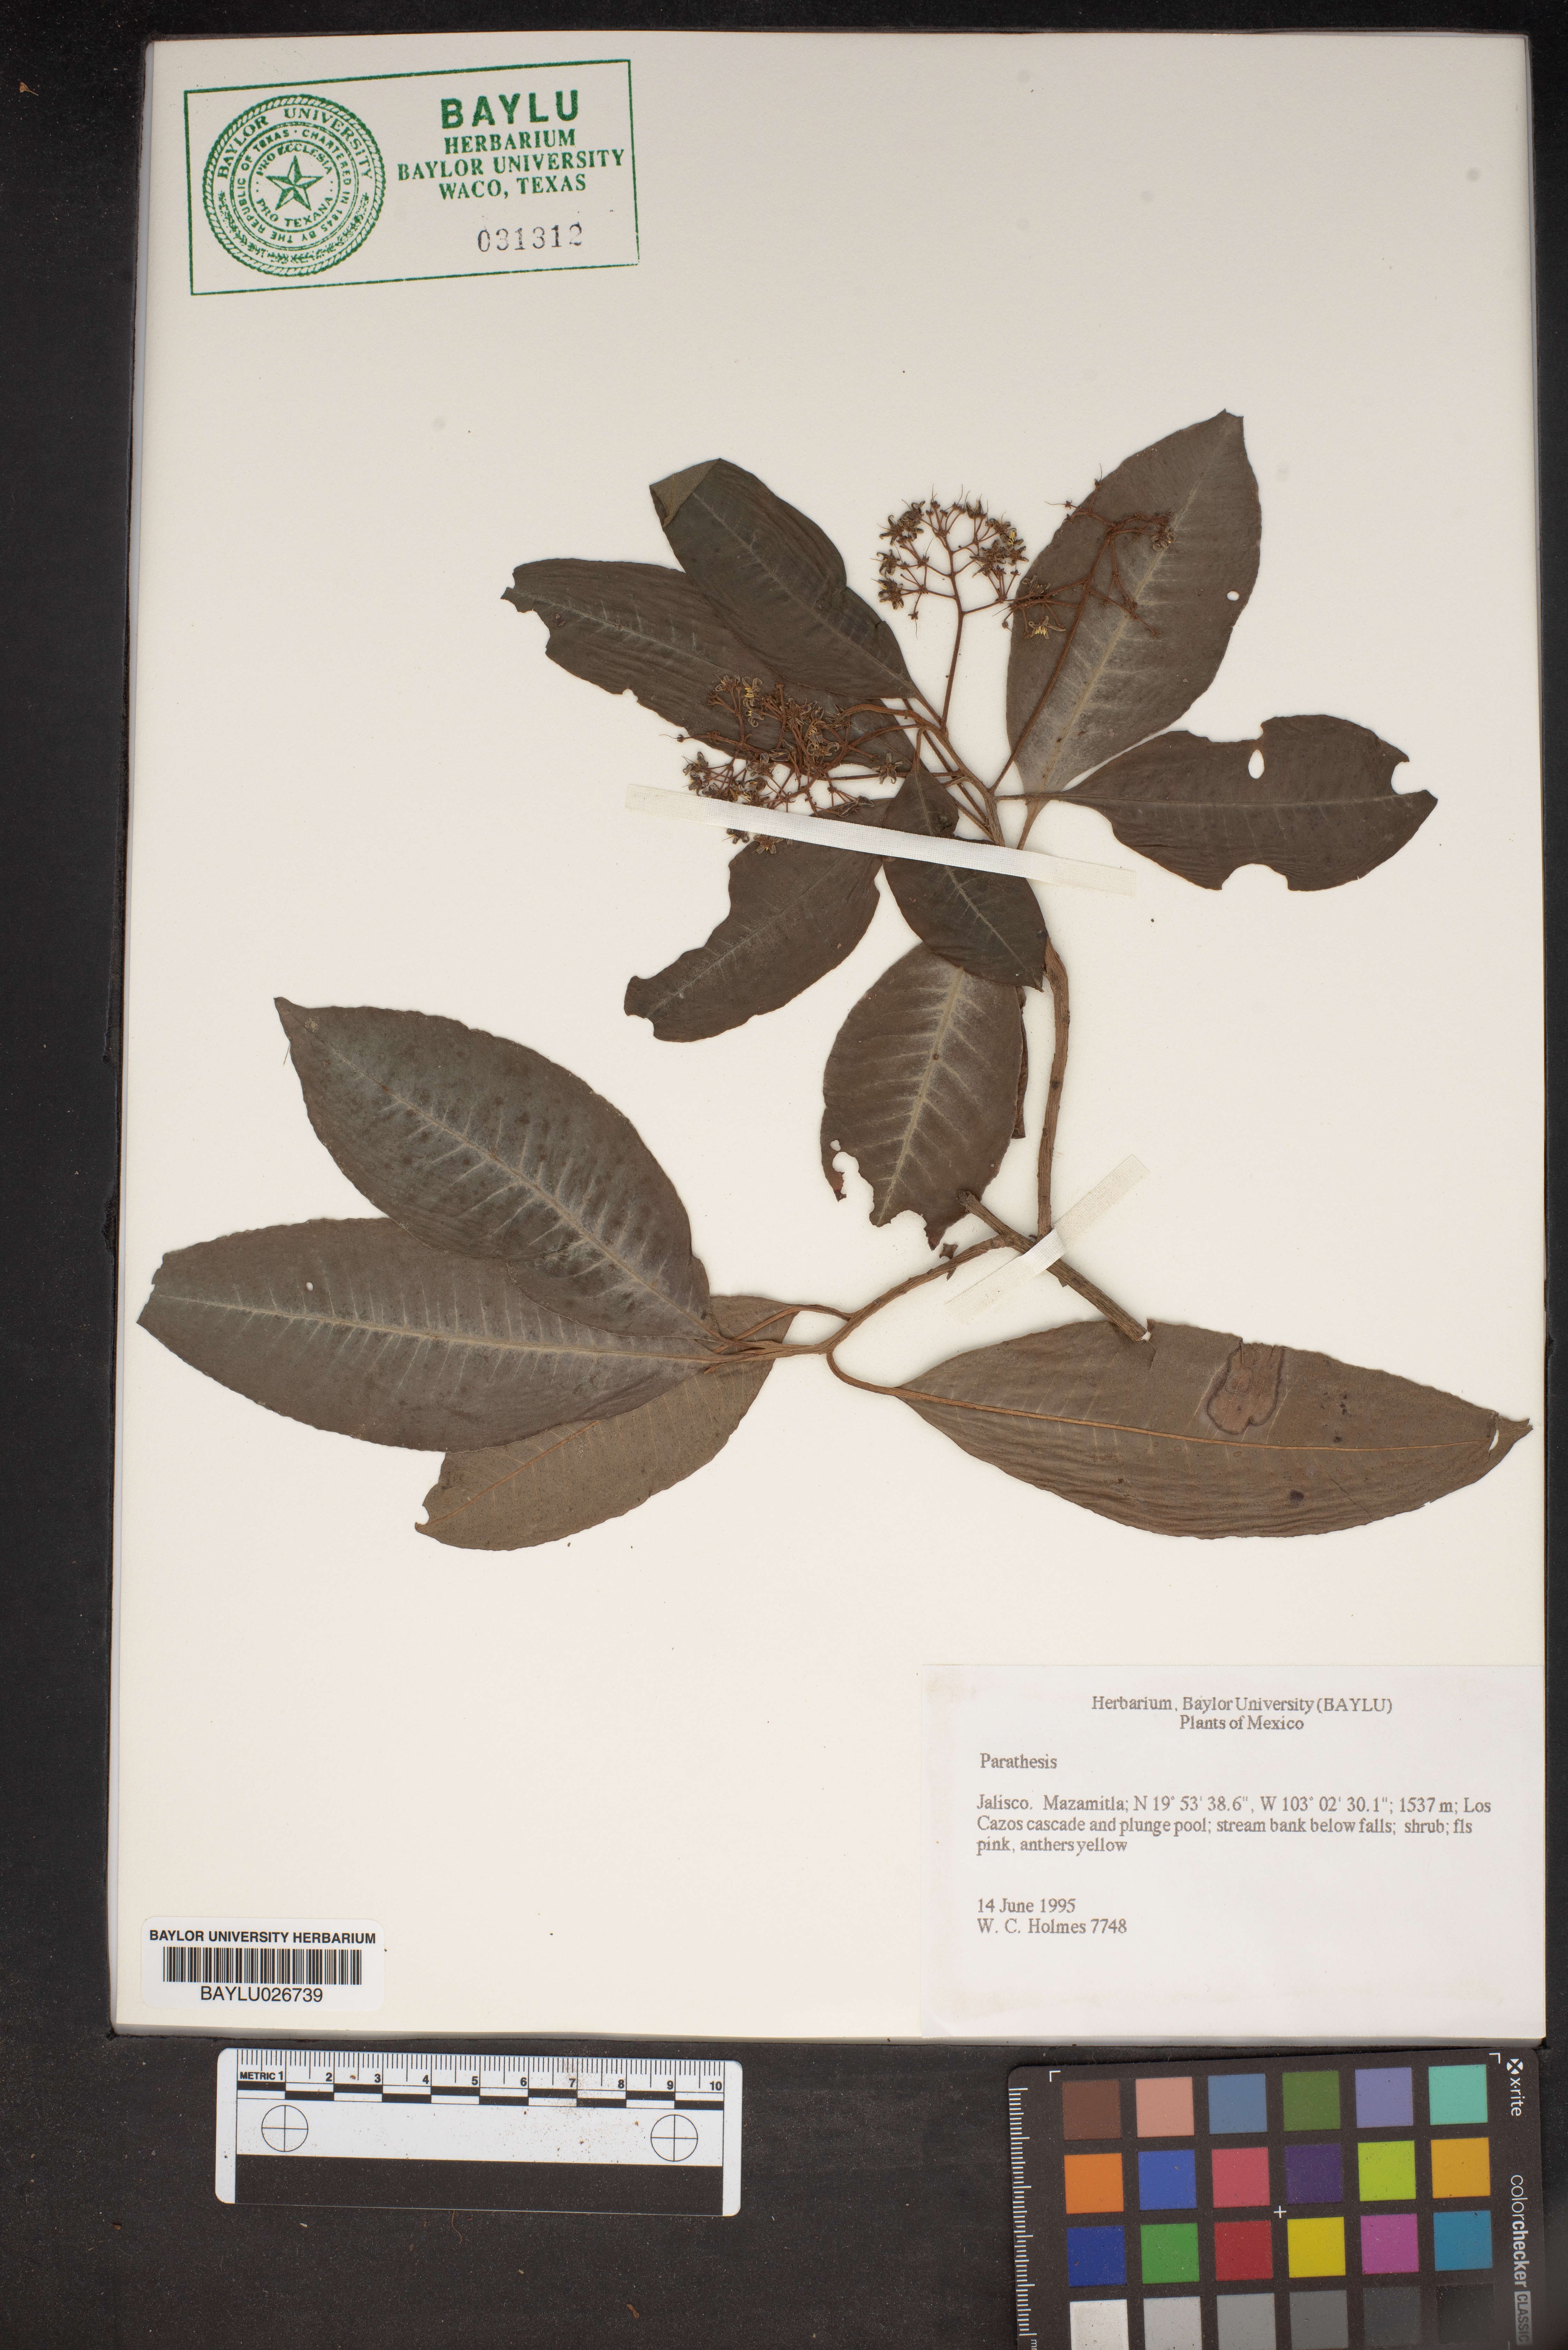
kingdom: Plantae
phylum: Tracheophyta
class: Magnoliopsida
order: Ericales
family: Primulaceae
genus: Parathesis
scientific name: Parathesis
